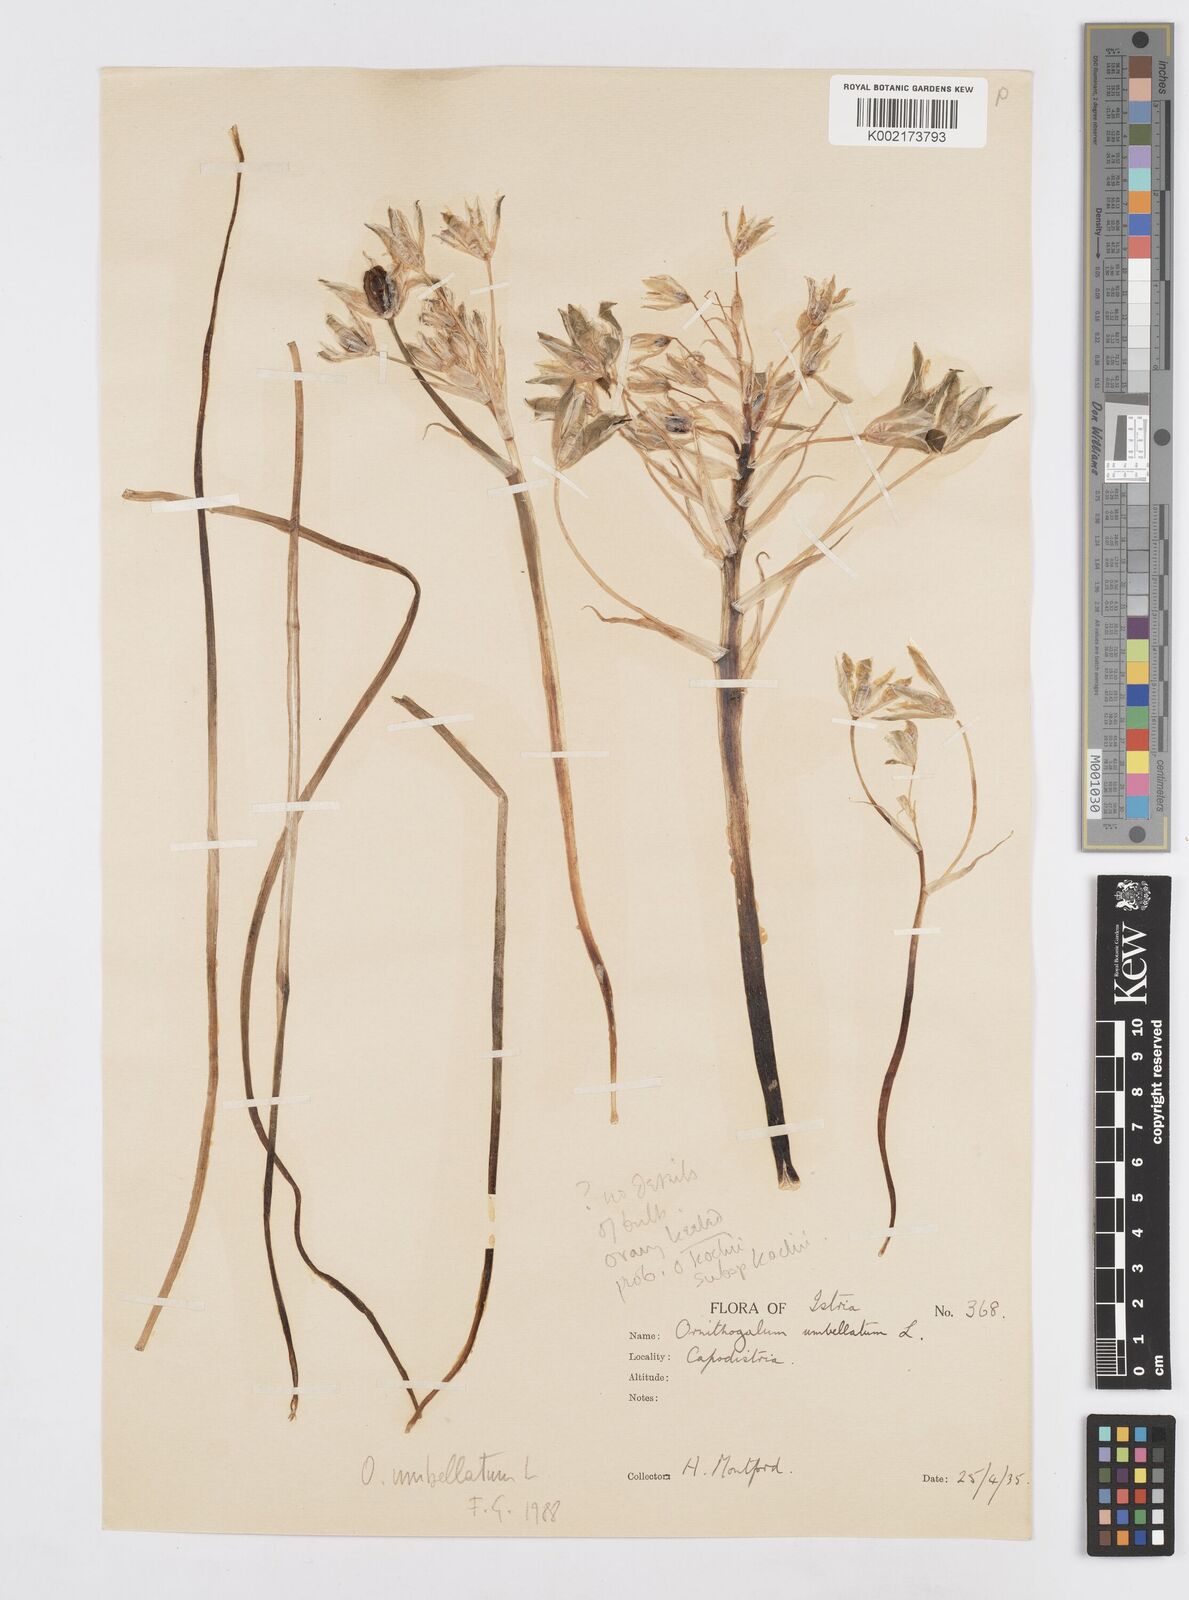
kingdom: Plantae
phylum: Tracheophyta
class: Liliopsida
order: Asparagales
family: Asparagaceae
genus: Ornithogalum
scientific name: Ornithogalum umbellatum
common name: Garden star-of-bethlehem
